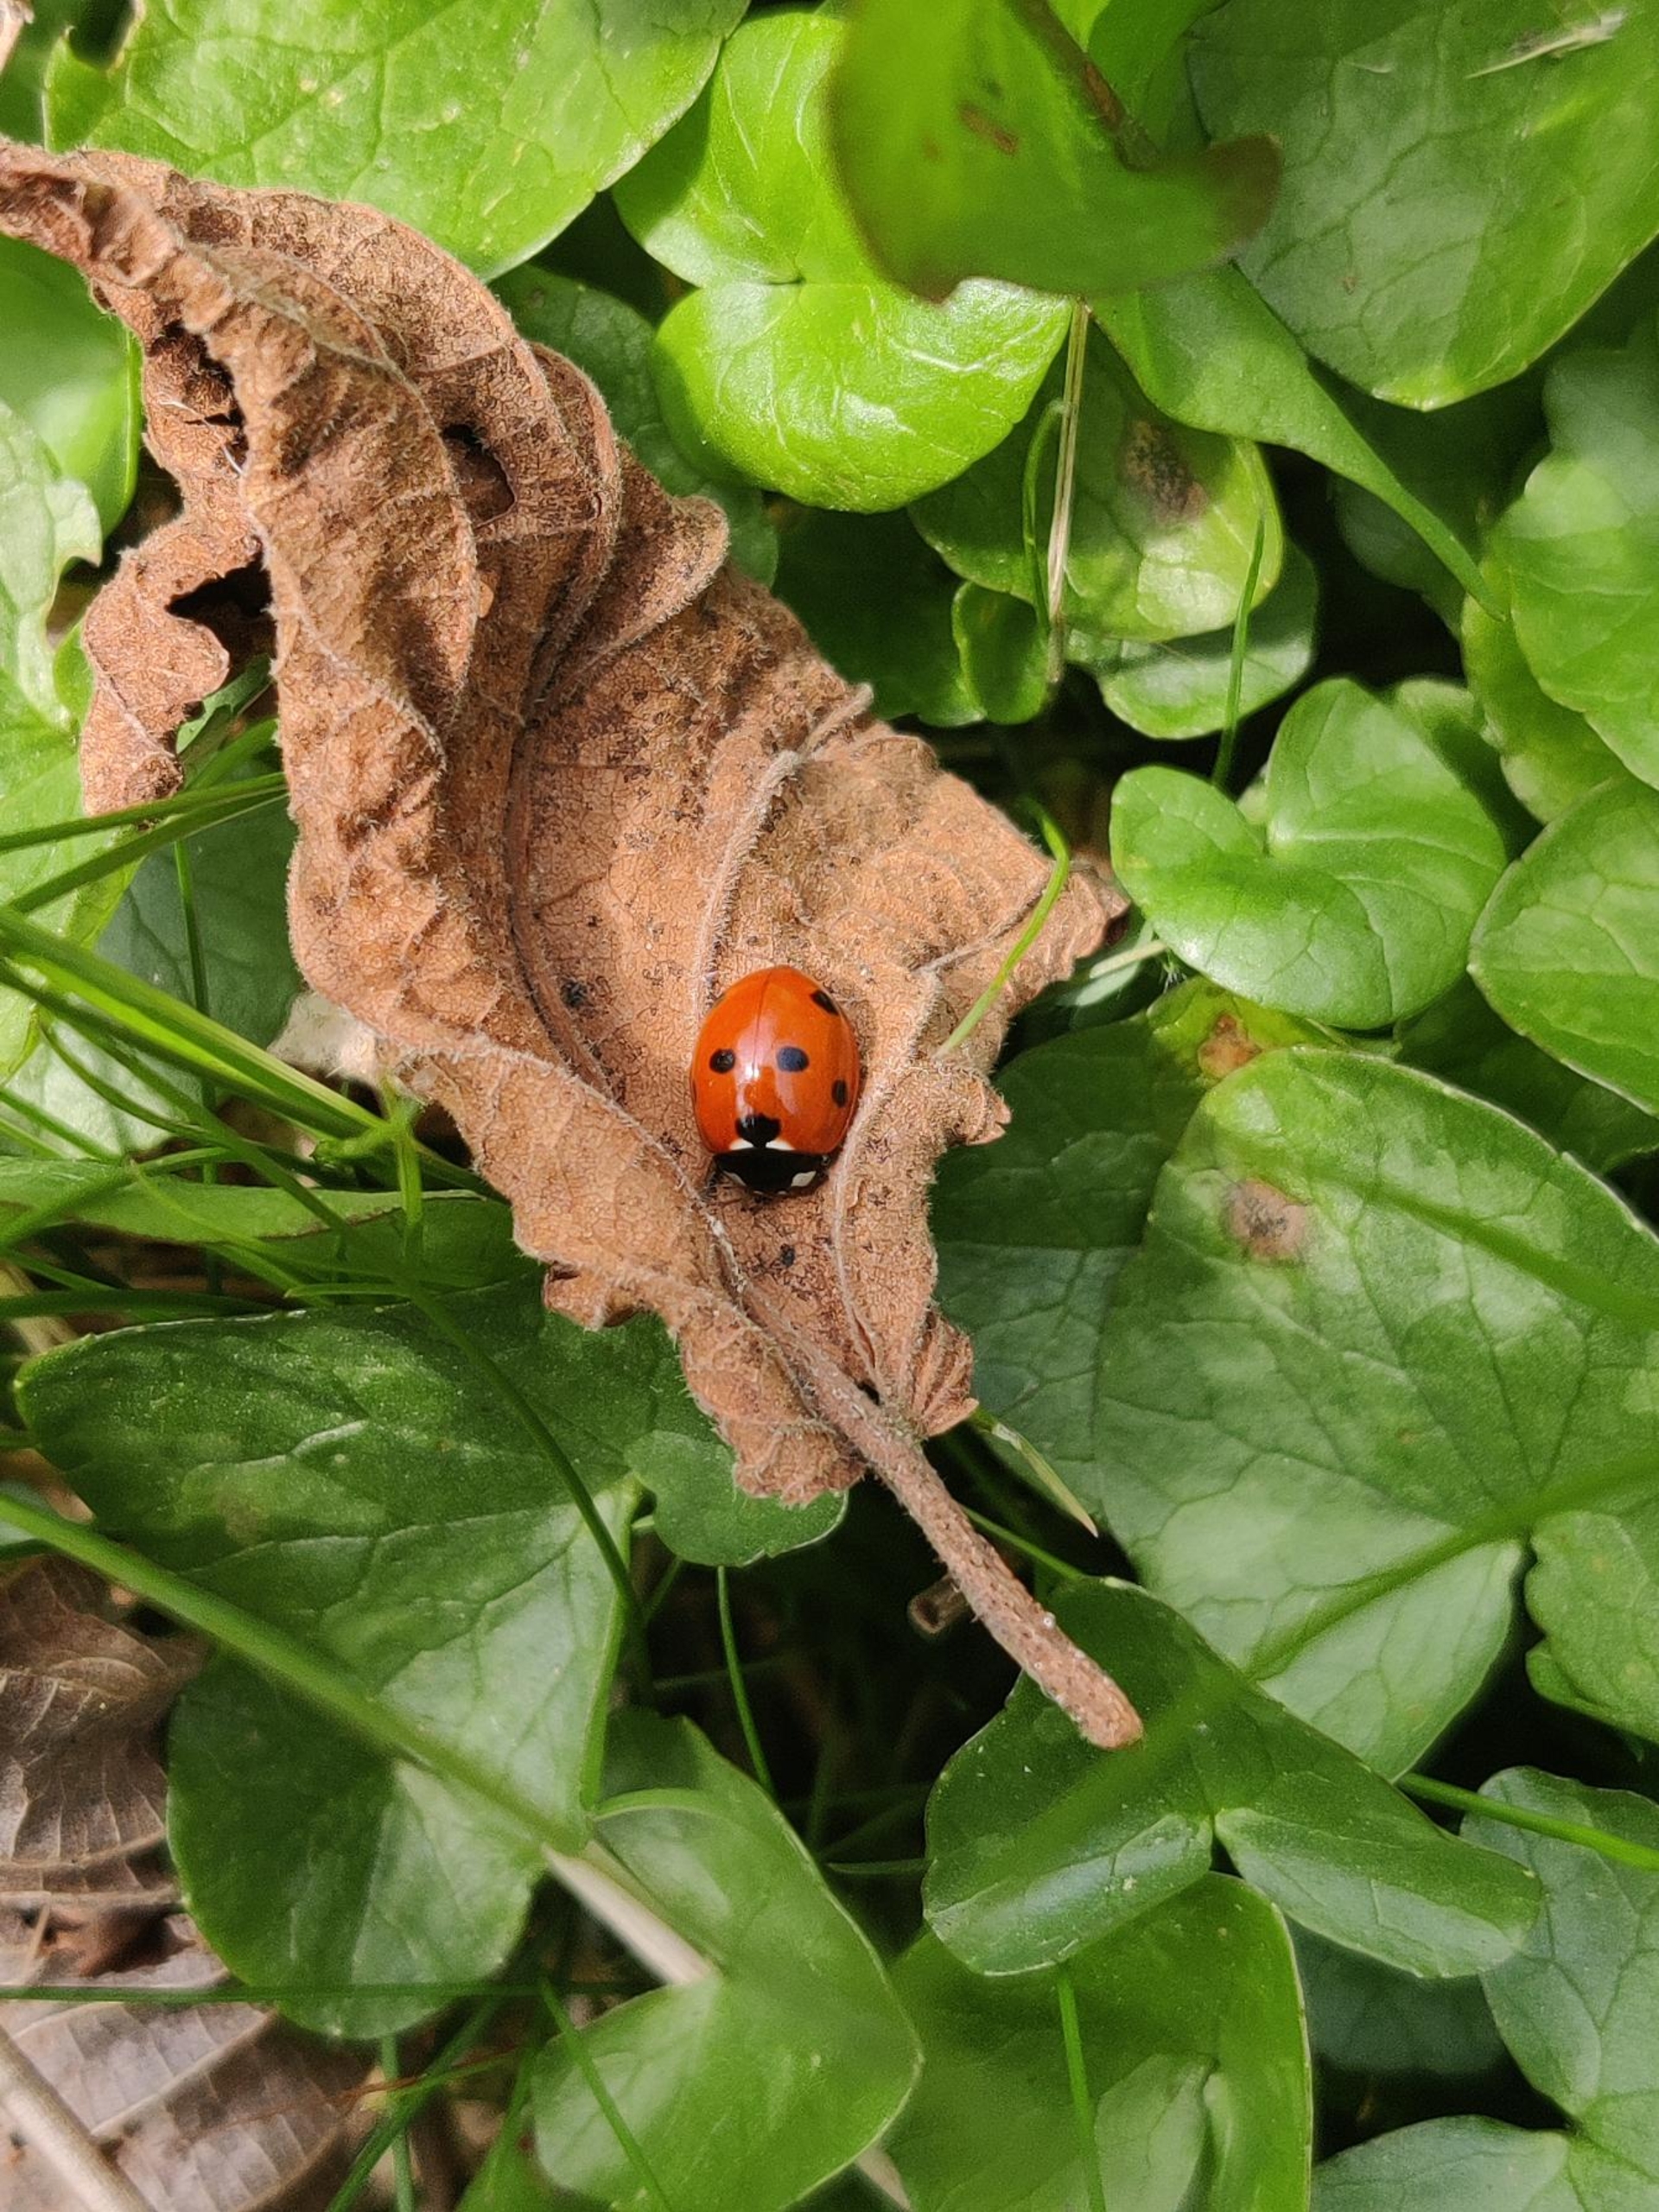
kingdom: Animalia
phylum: Arthropoda
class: Insecta
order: Coleoptera
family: Coccinellidae
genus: Coccinella
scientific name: Coccinella septempunctata
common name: Syvplettet mariehøne
